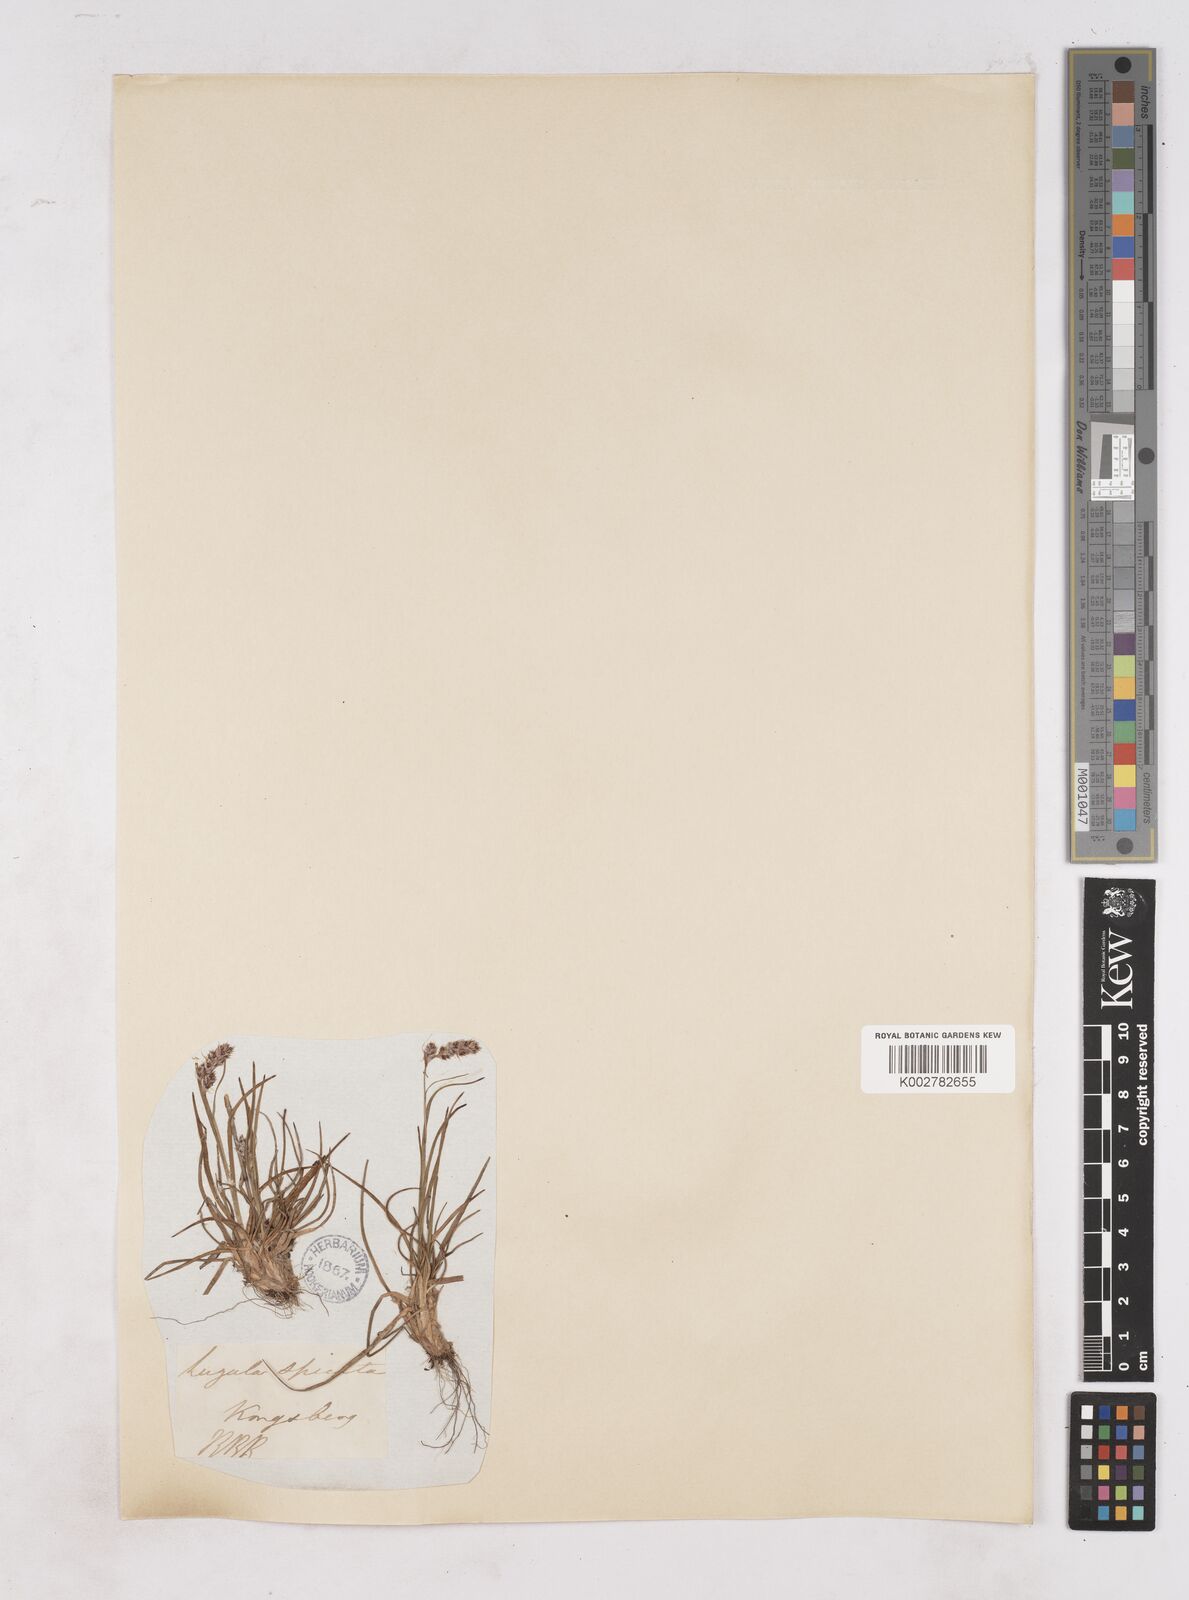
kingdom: Plantae
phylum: Tracheophyta
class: Liliopsida
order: Poales
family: Juncaceae
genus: Luzula
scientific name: Luzula spicata
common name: Spiked wood-rush
